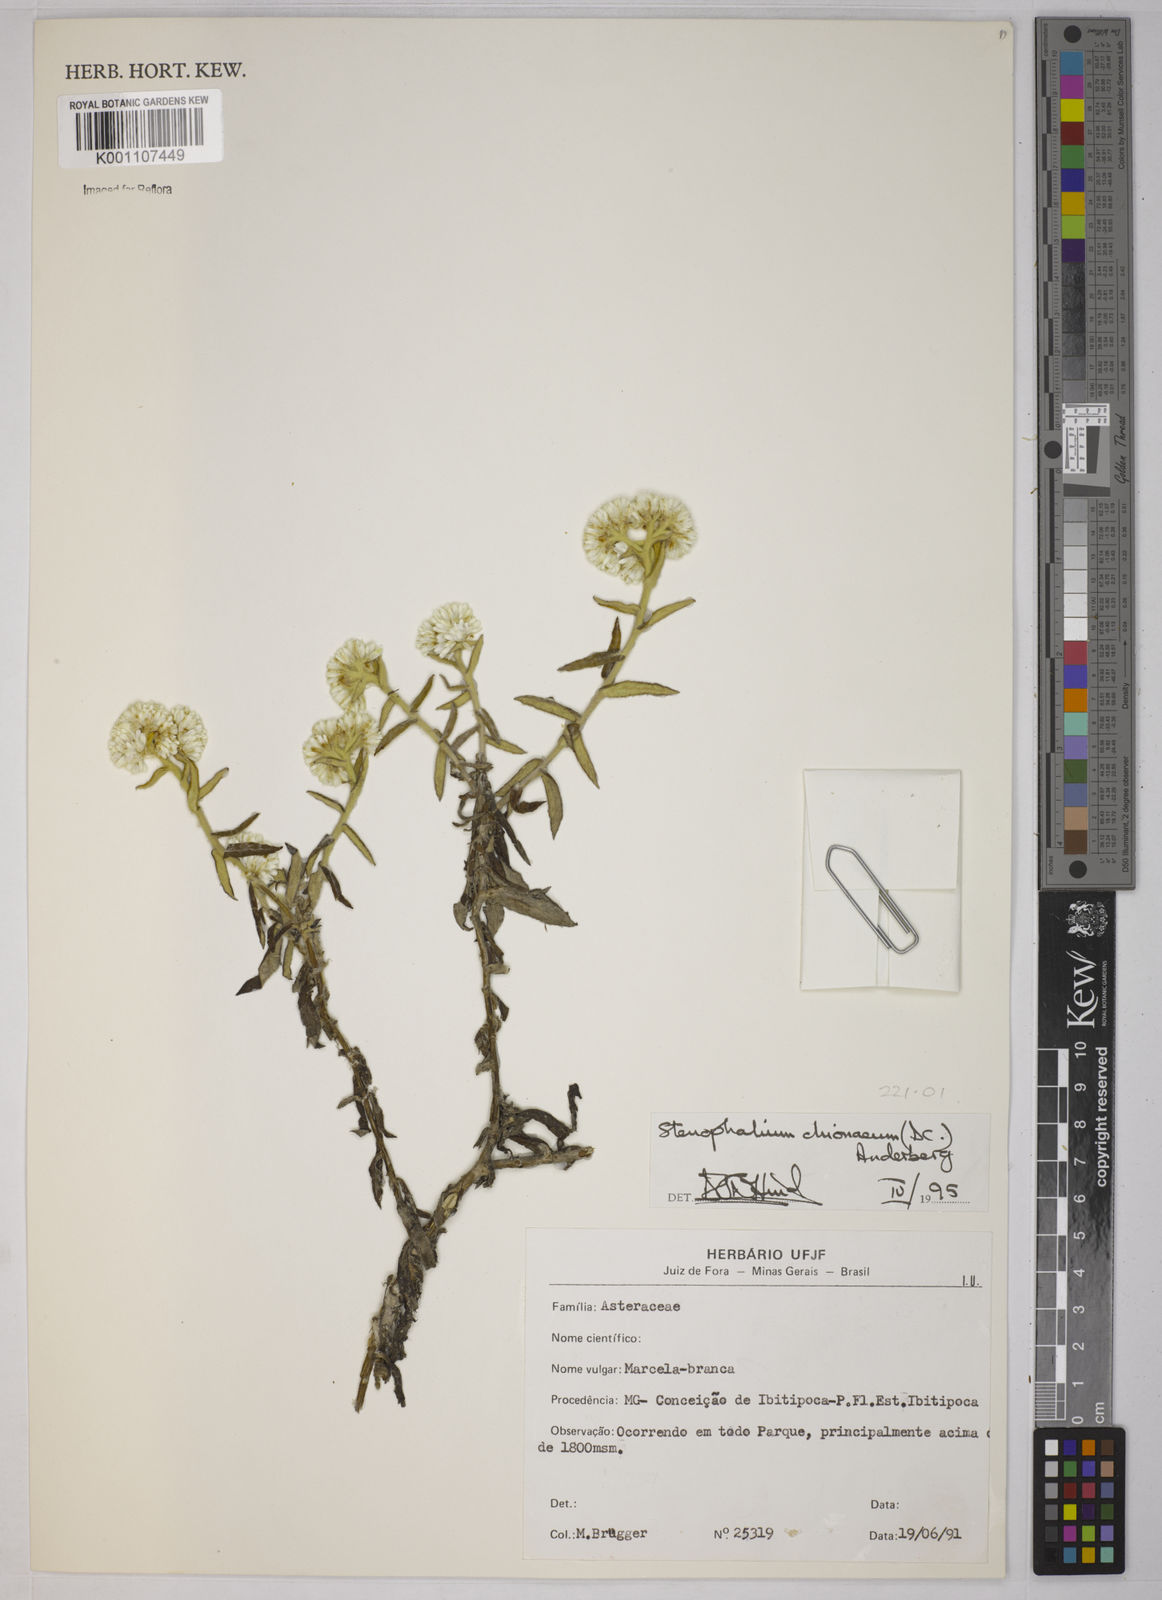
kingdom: Plantae
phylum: Tracheophyta
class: Magnoliopsida
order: Asterales
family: Asteraceae
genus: Achyrocline
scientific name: Achyrocline chionaea
